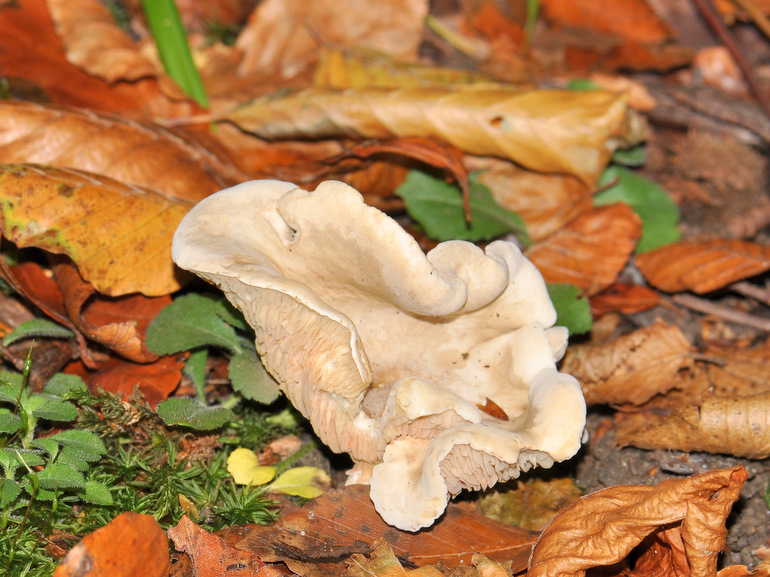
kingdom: Fungi
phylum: Basidiomycota
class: Agaricomycetes
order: Agaricales
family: Entolomataceae
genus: Clitopilus
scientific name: Clitopilus prunulus
